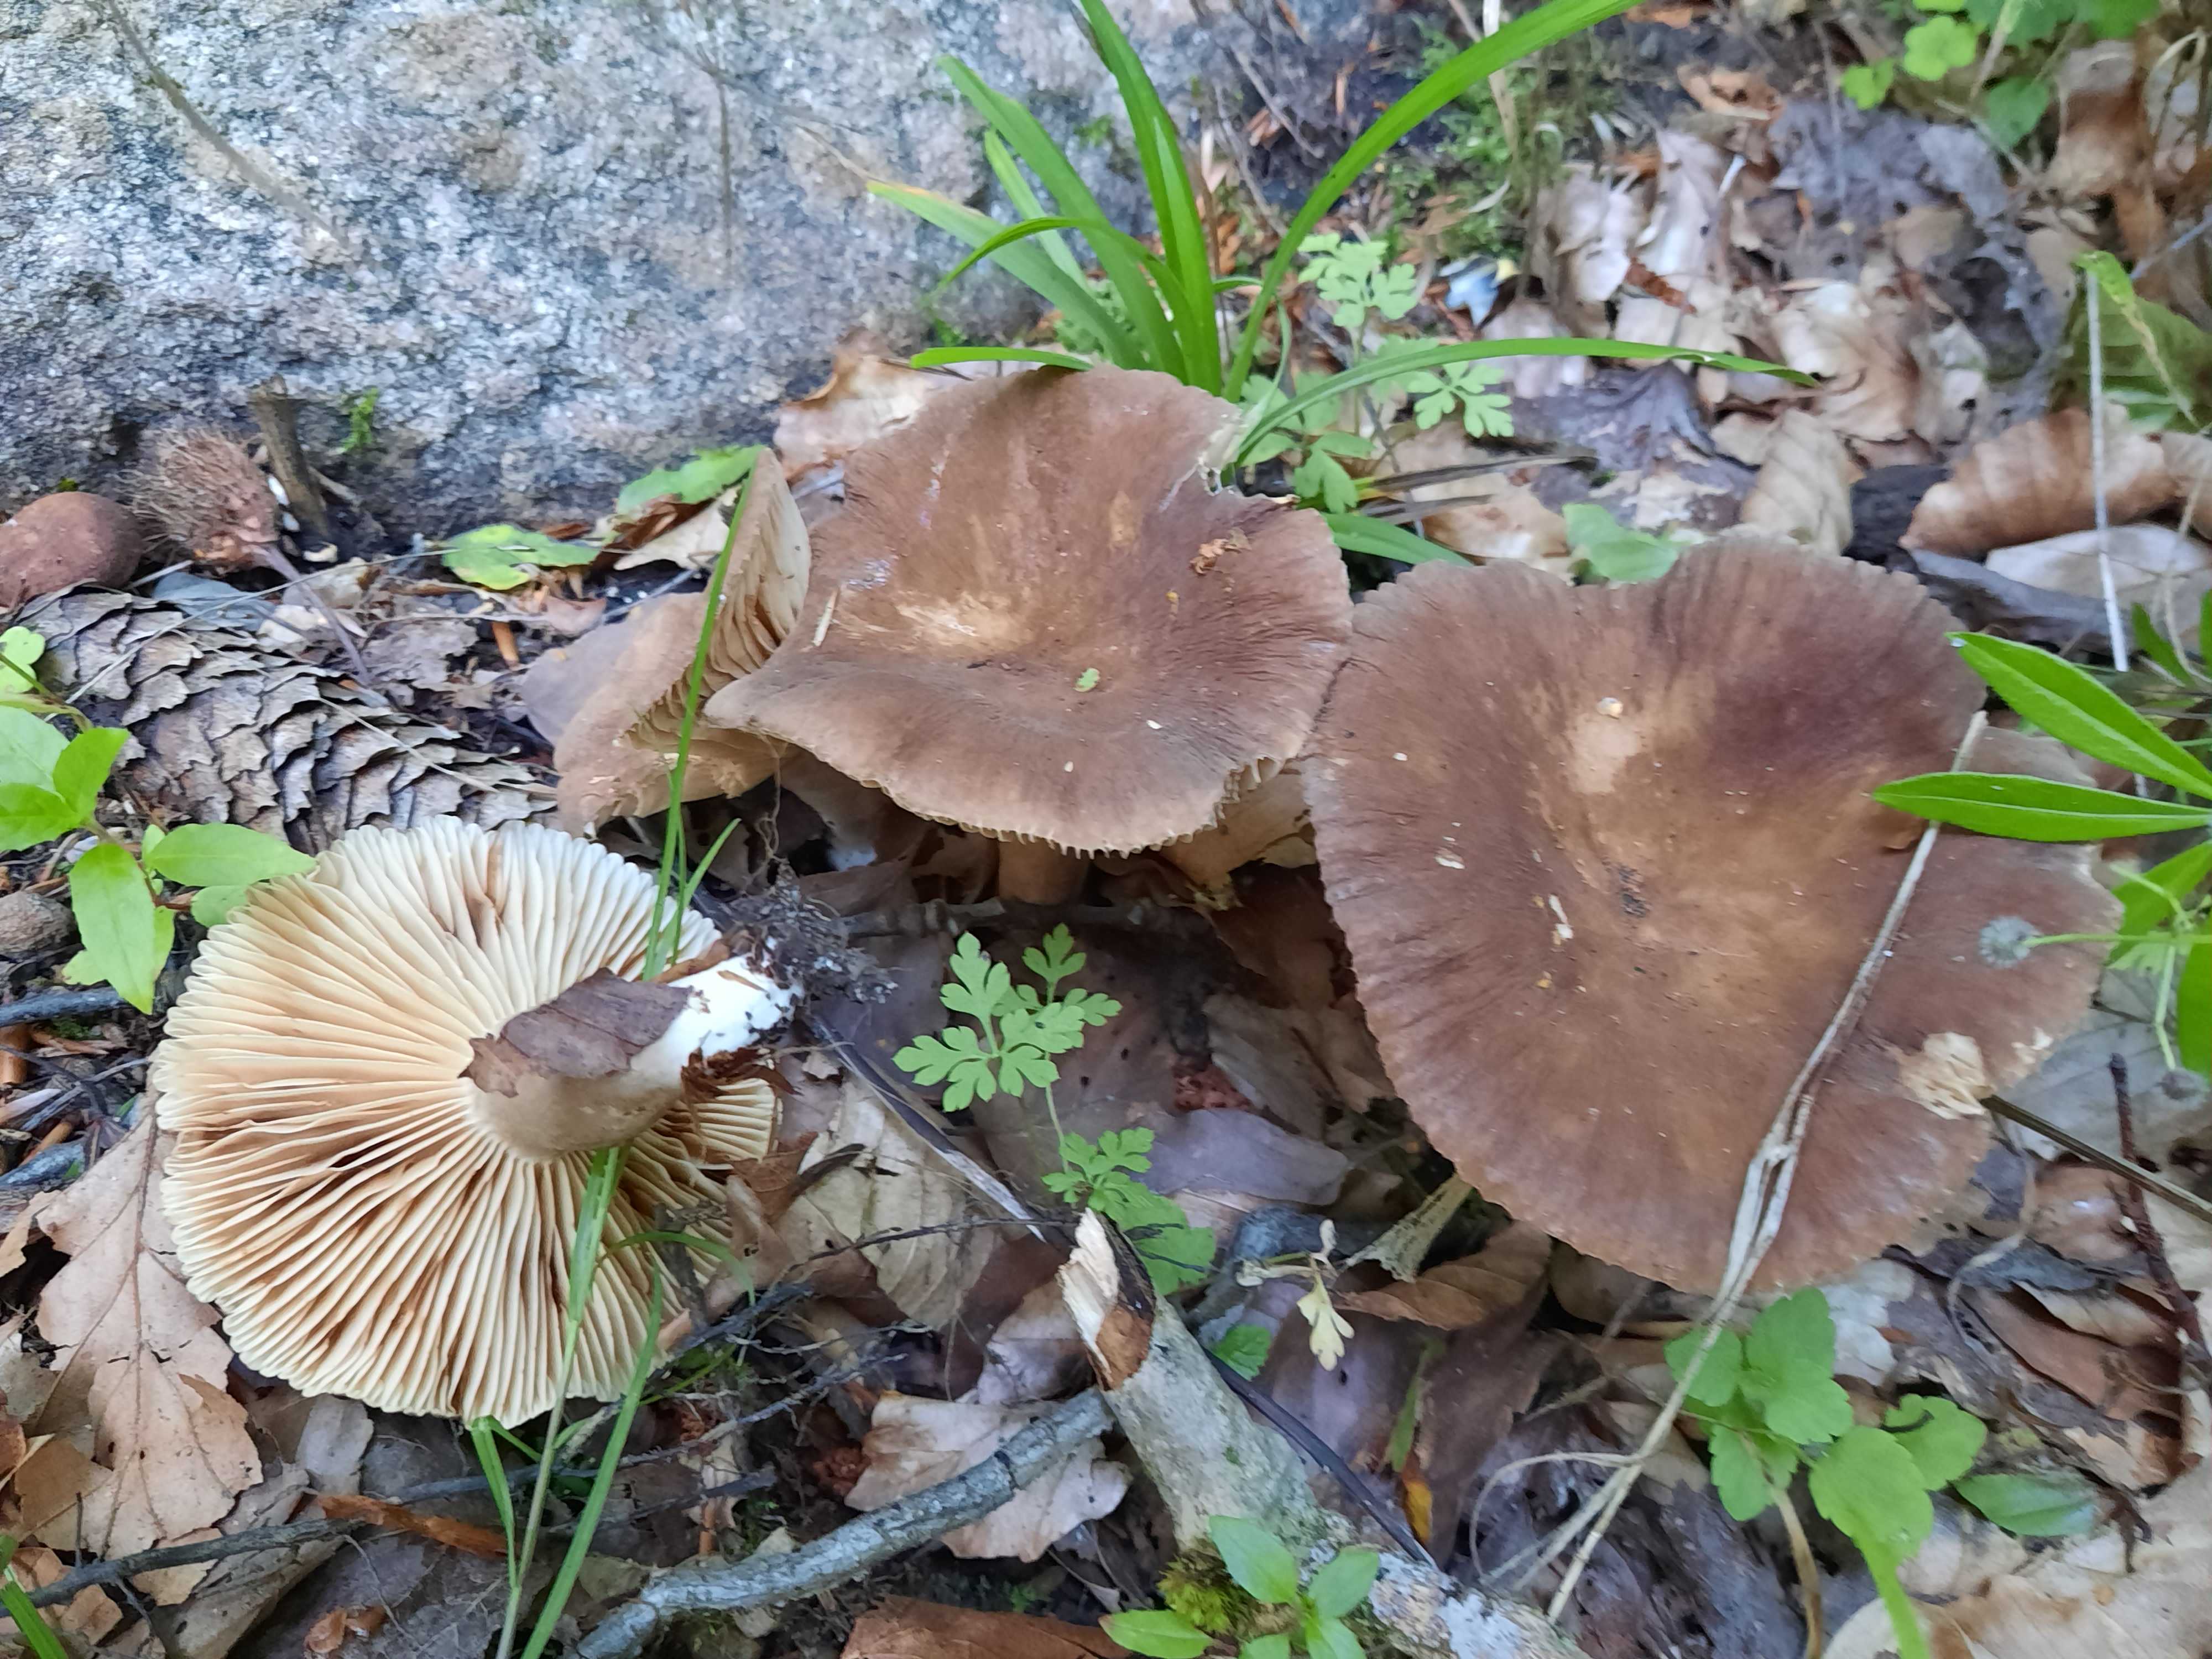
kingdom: Fungi
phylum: Basidiomycota
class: Agaricomycetes
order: Russulales
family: Russulaceae
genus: Lactarius
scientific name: Lactarius romagnesii
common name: fjernbladet mælkehat
